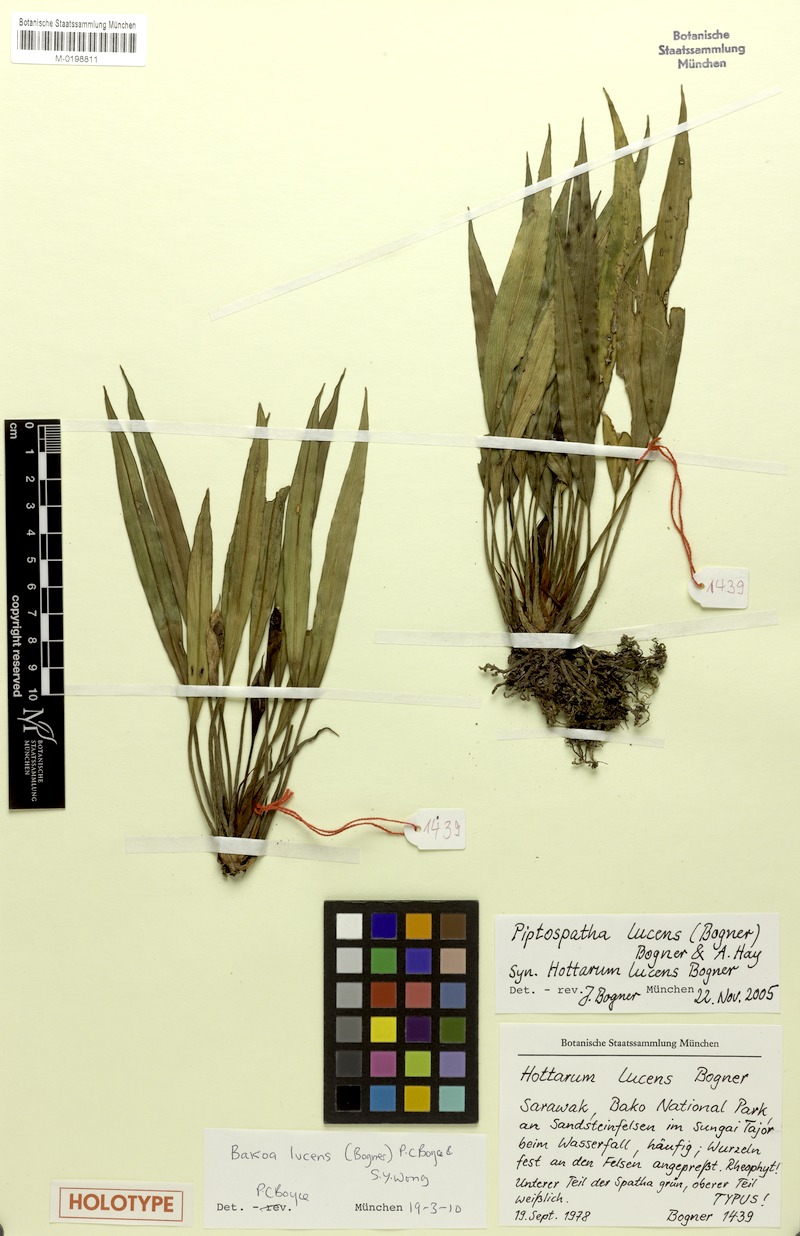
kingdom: Plantae
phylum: Tracheophyta
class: Liliopsida
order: Alismatales
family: Araceae
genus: Bakoa
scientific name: Bakoa lucens
